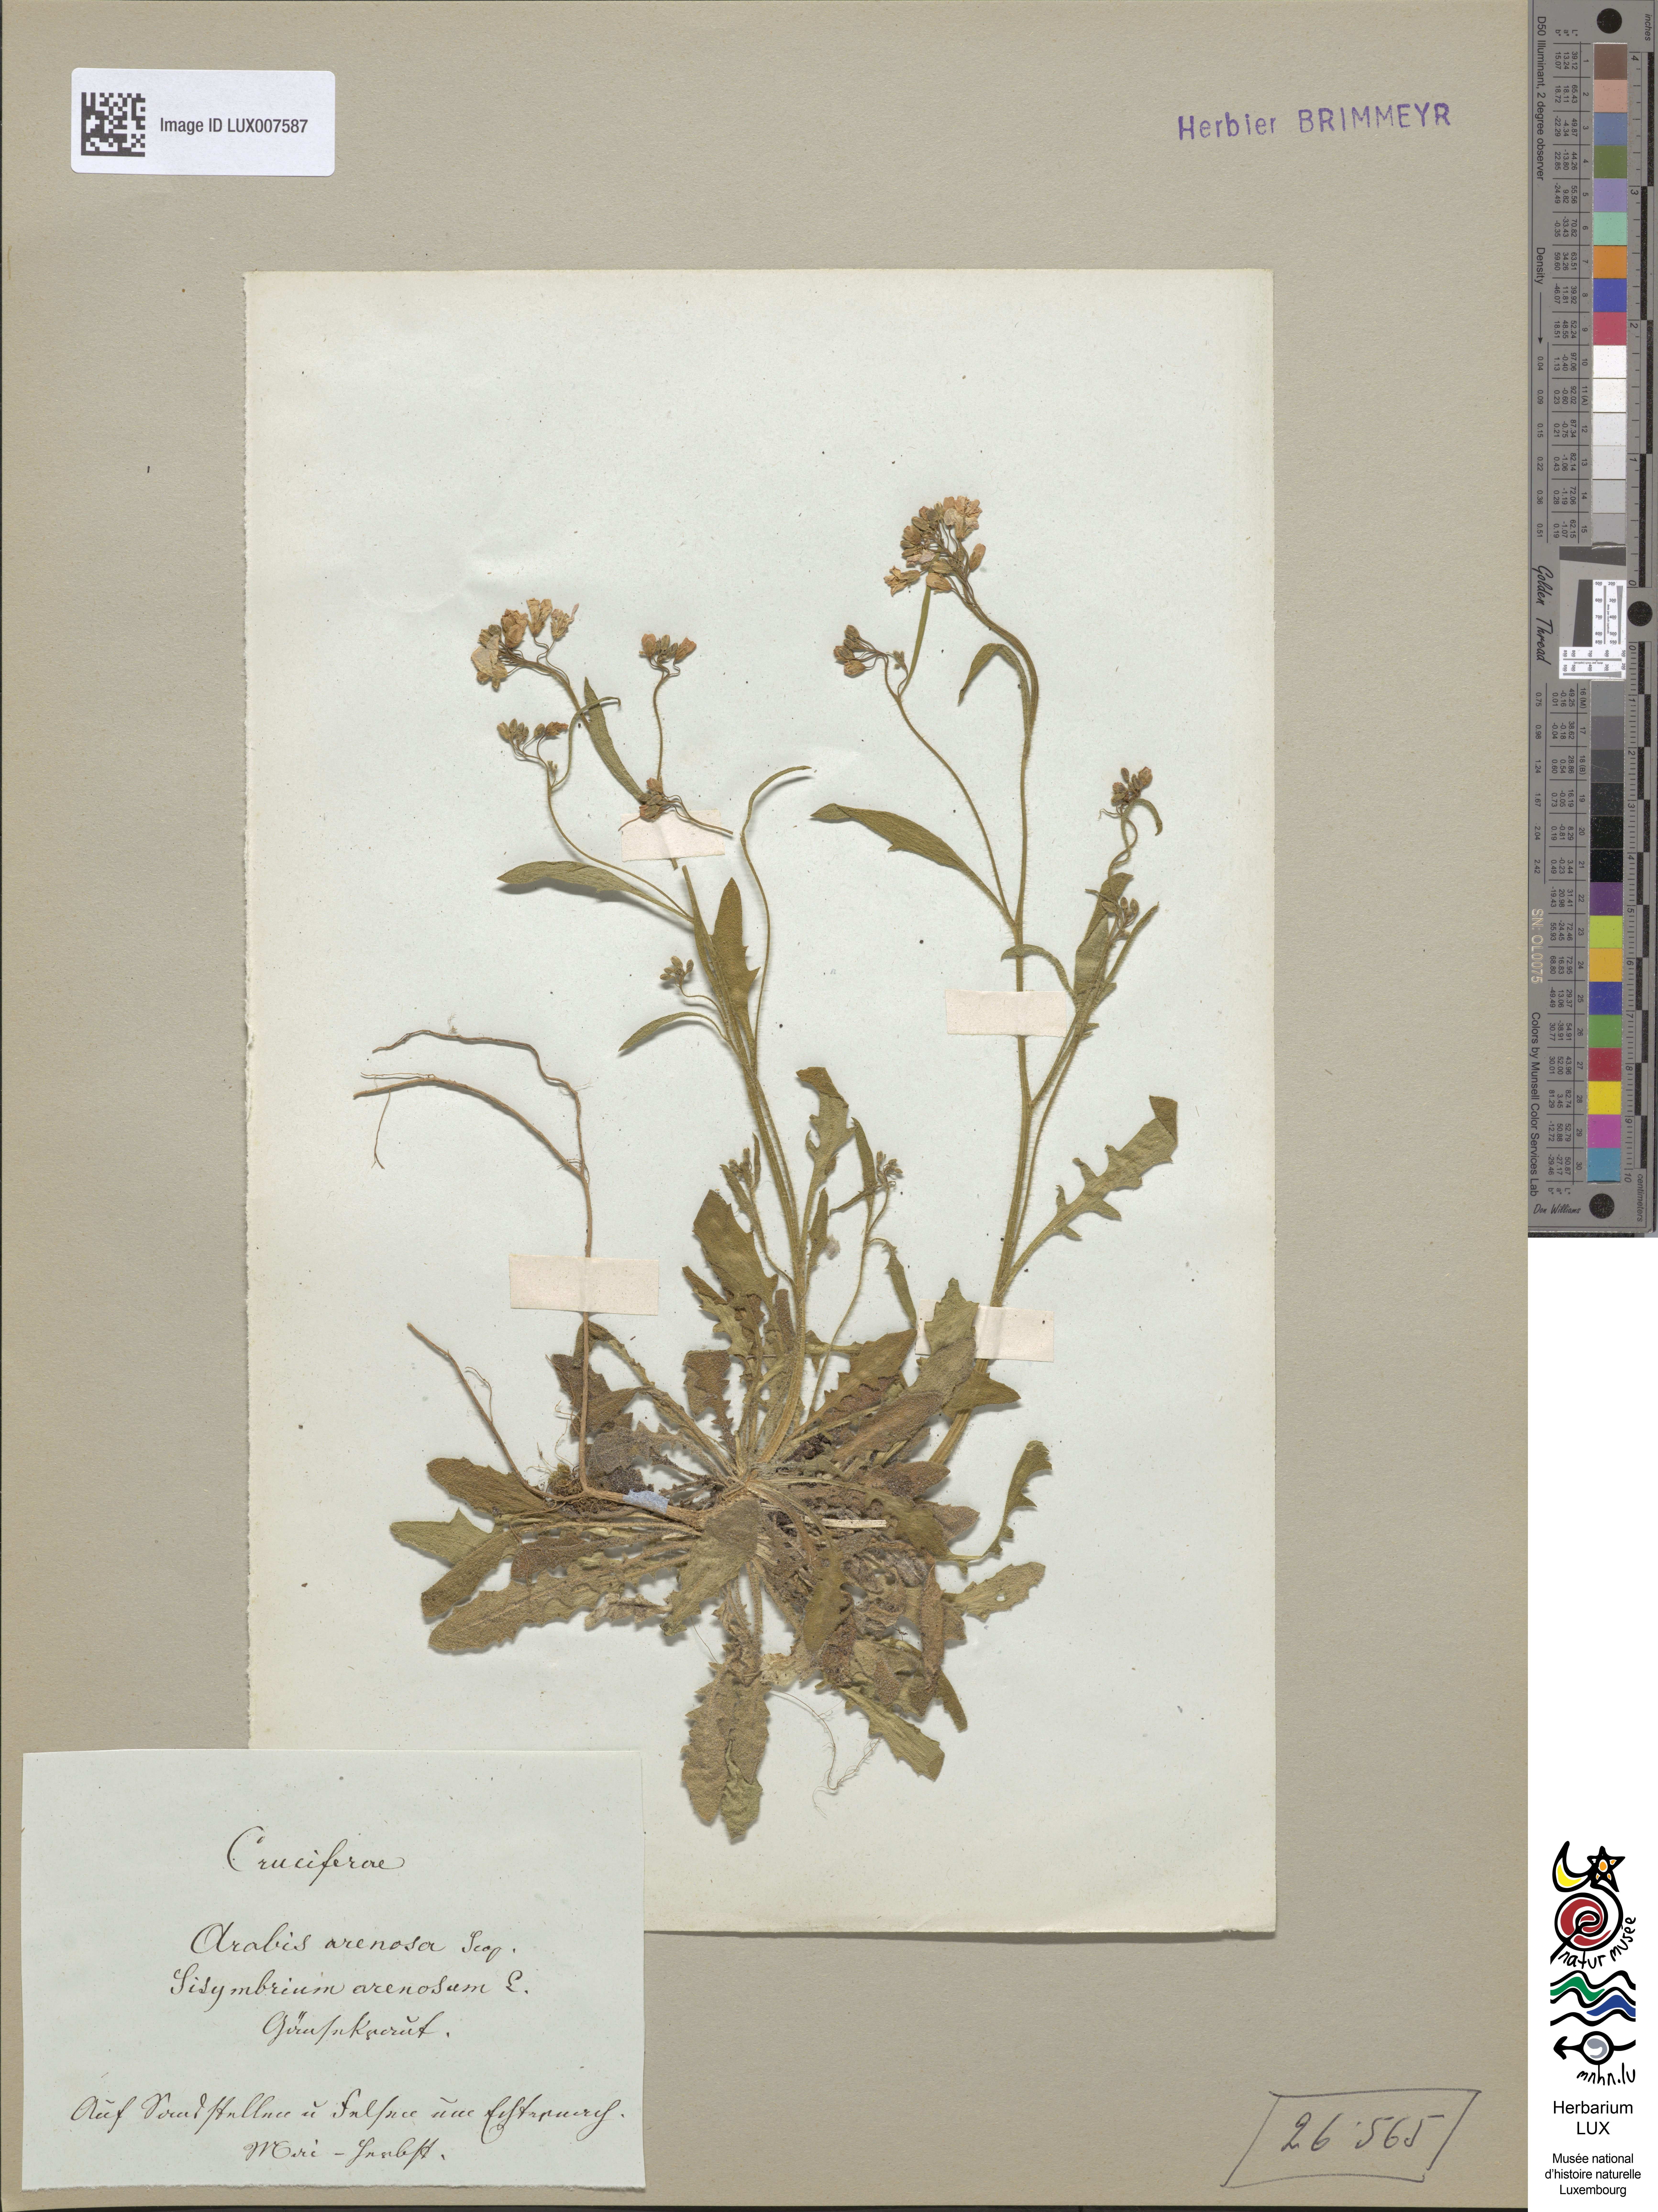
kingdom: Plantae
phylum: Tracheophyta
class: Magnoliopsida
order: Brassicales
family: Brassicaceae
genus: Arabidopsis
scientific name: Arabidopsis arenosa
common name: Sand rock-cress
